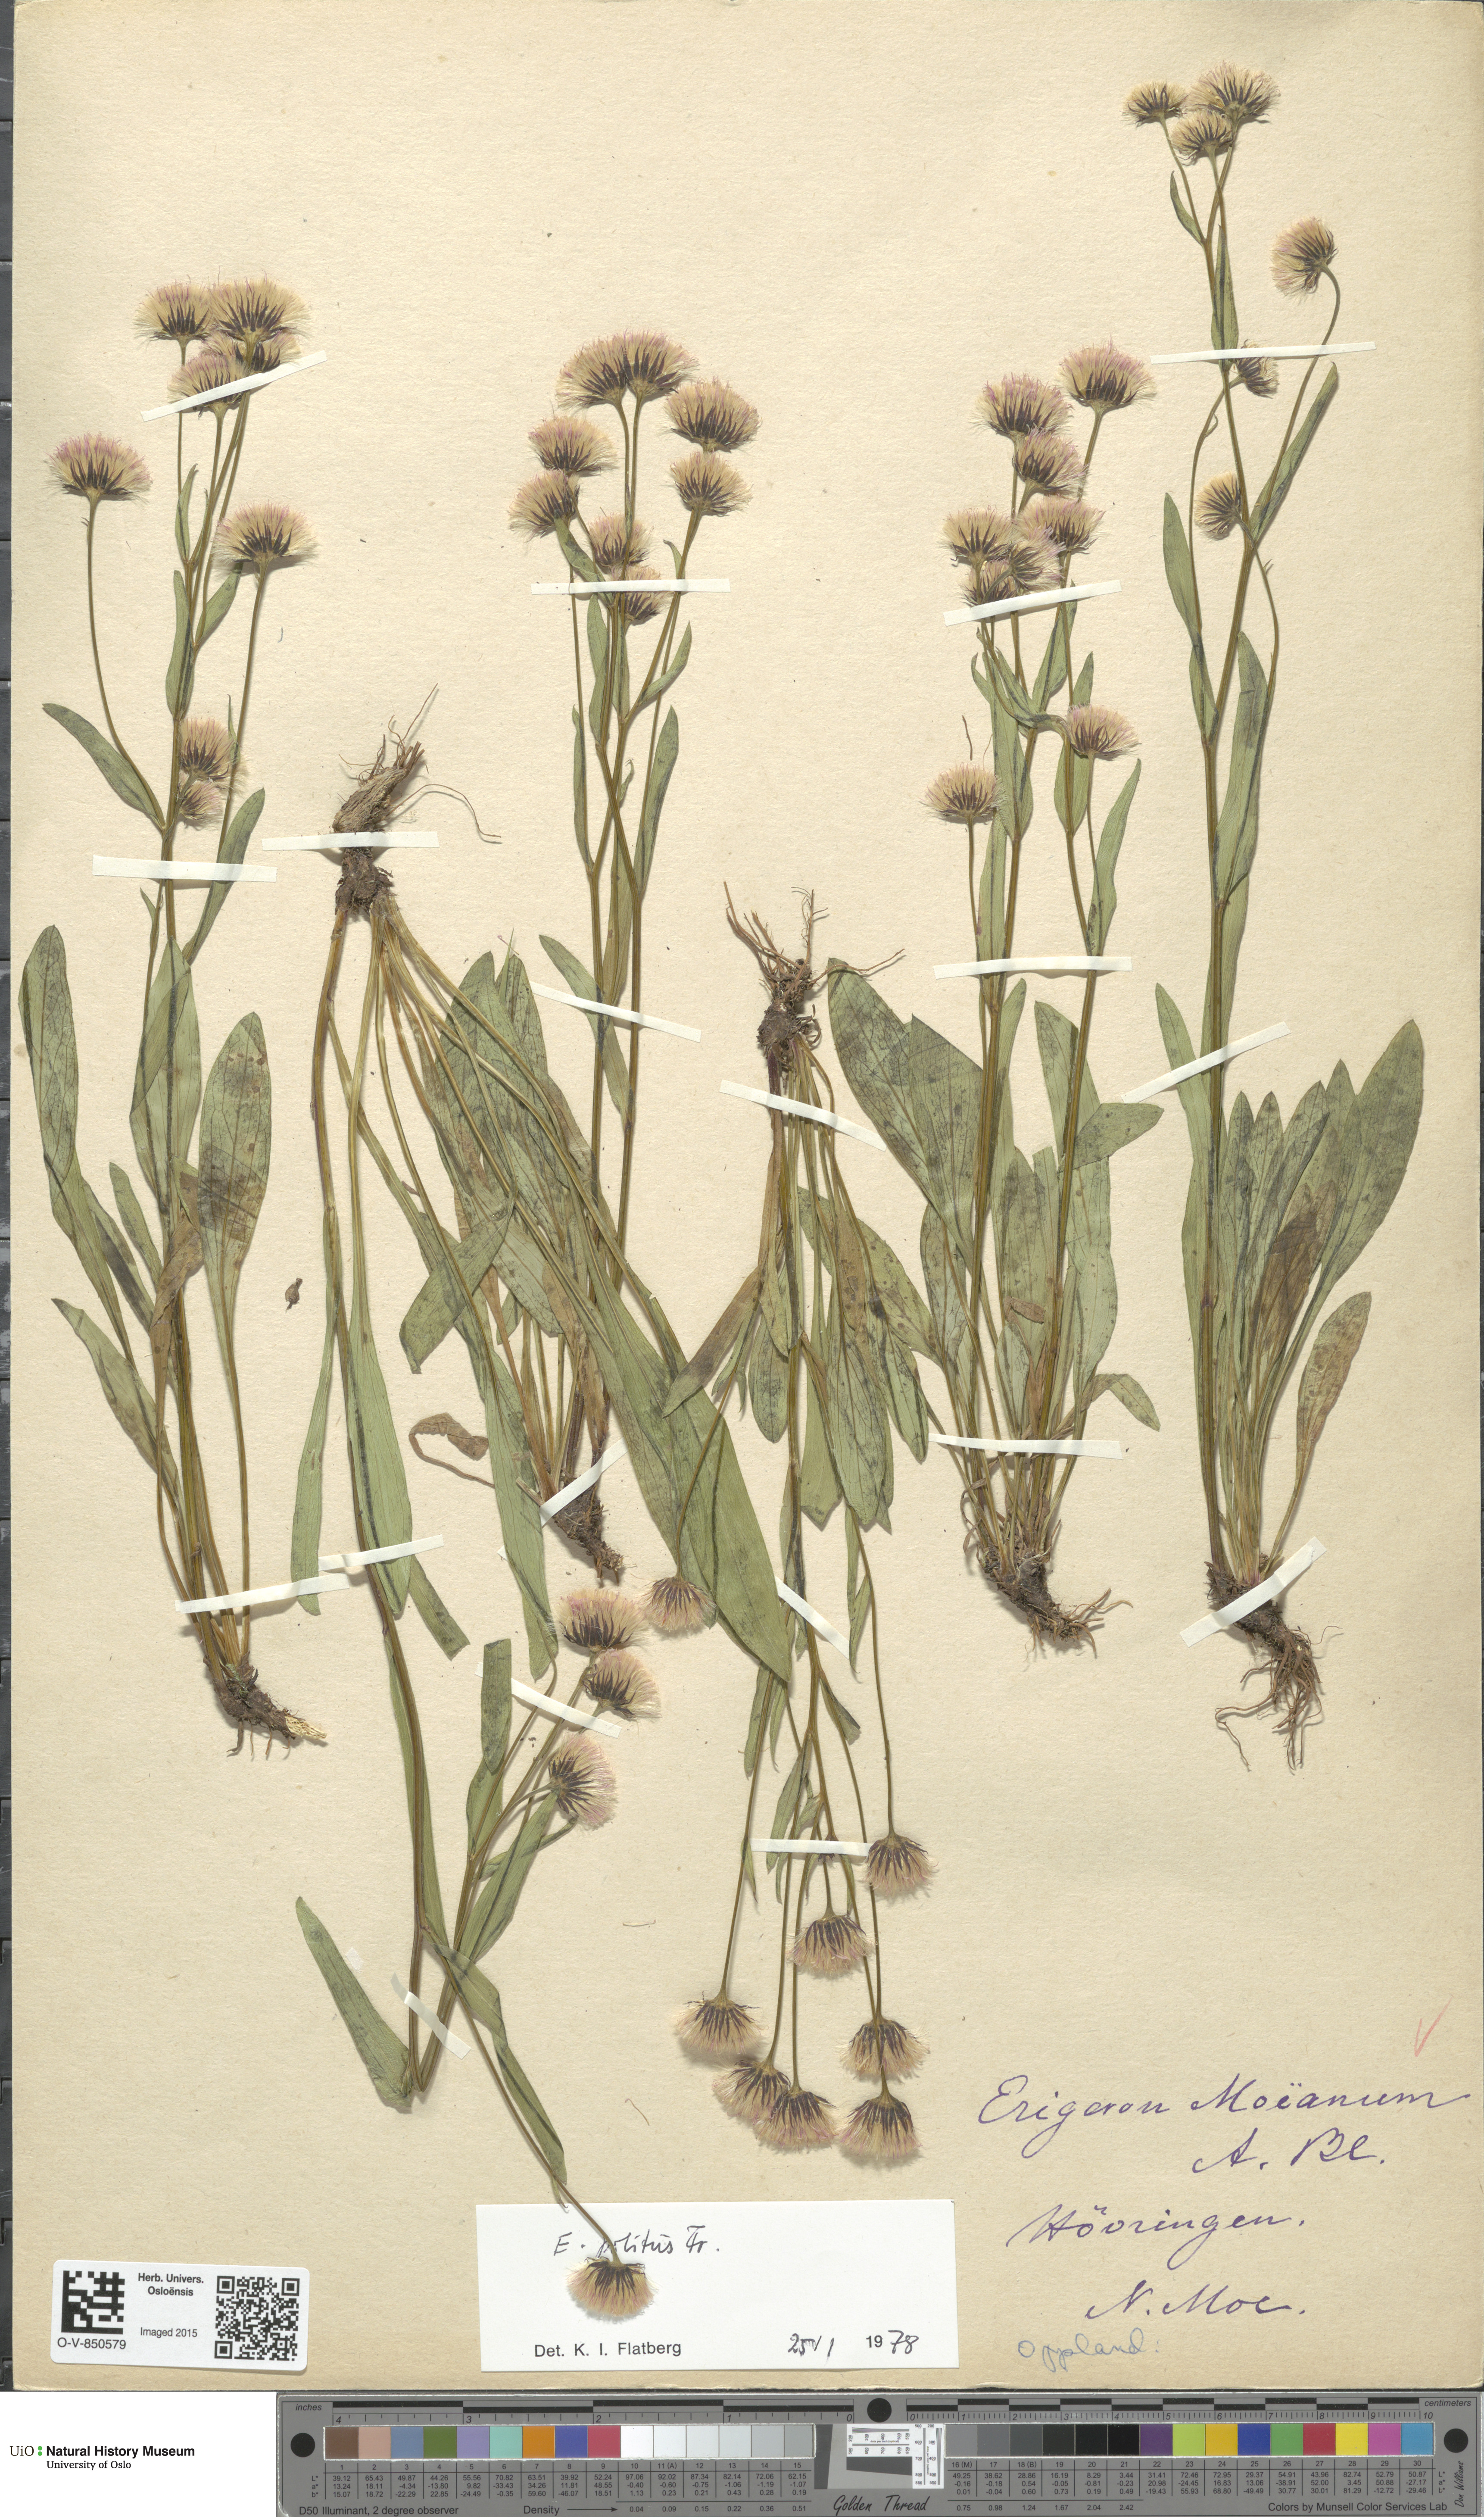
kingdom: Plantae
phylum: Tracheophyta
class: Magnoliopsida
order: Asterales
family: Asteraceae
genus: Erigeron
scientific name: Erigeron politus
